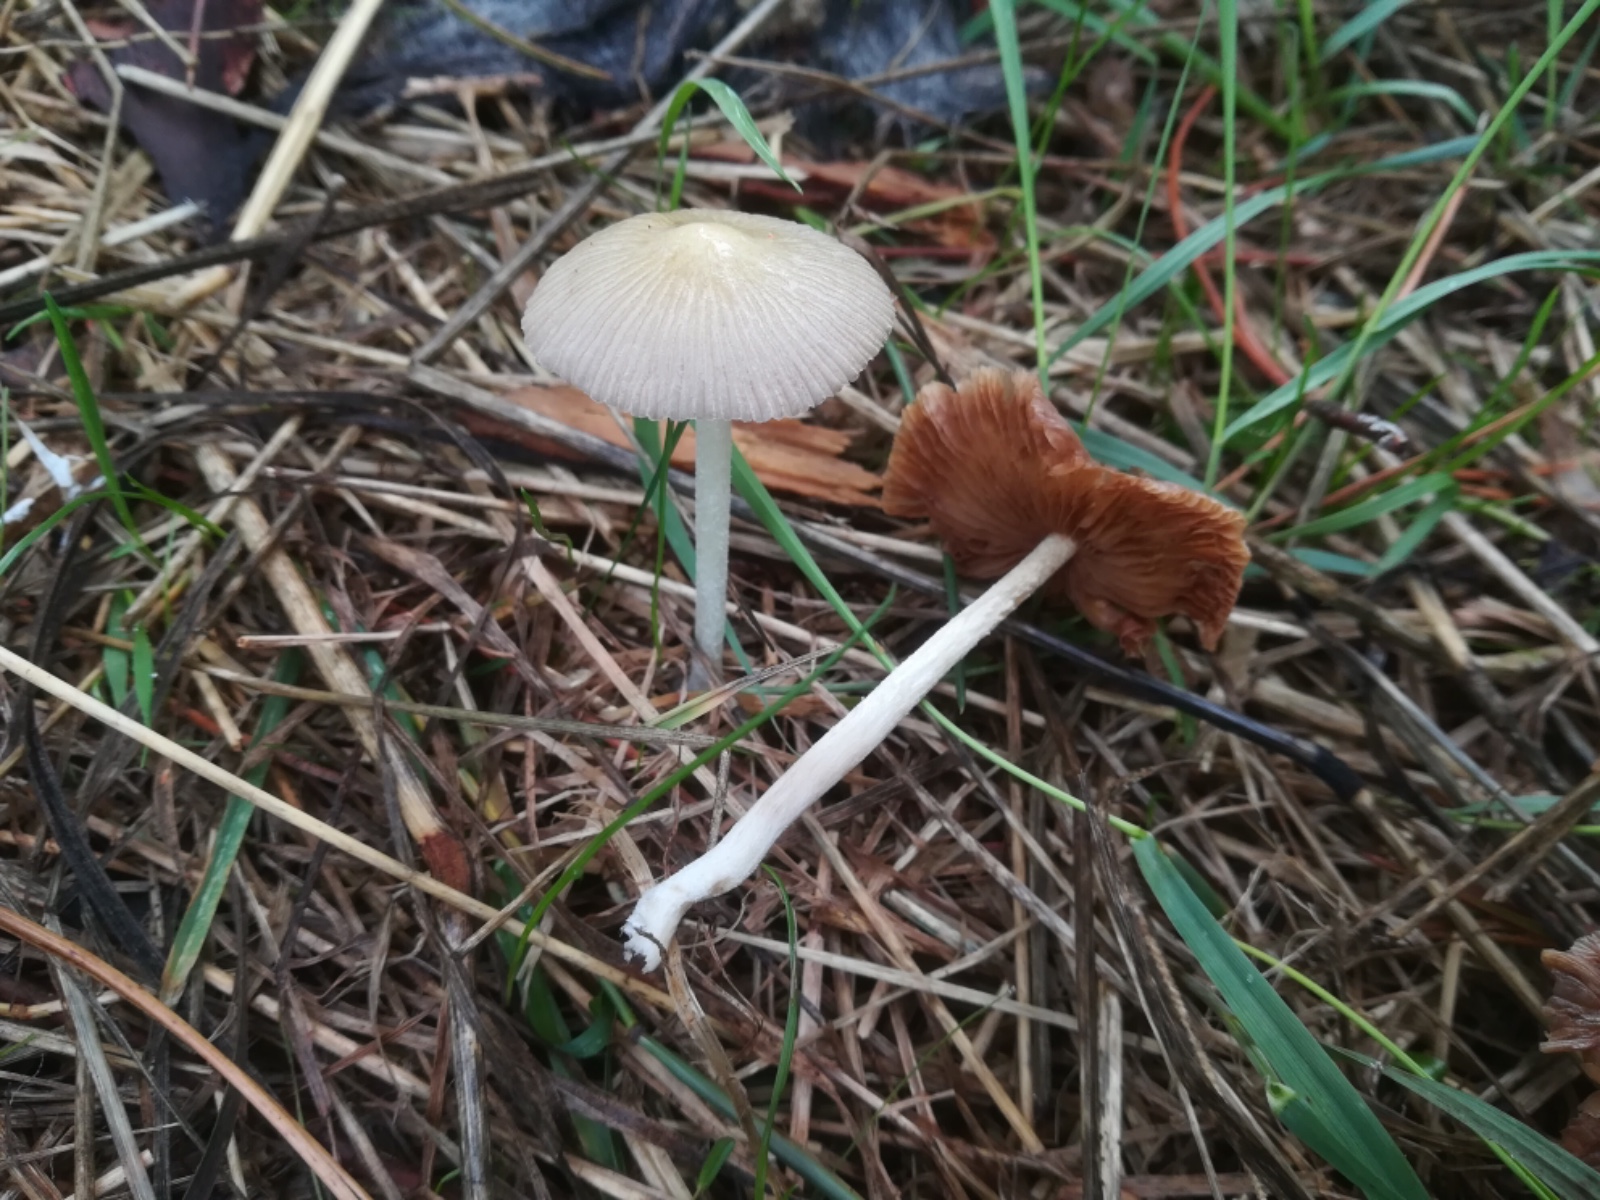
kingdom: Fungi
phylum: Basidiomycota
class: Agaricomycetes
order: Agaricales
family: Bolbitiaceae
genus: Bolbitius
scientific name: Bolbitius titubans
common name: almindelig gulhat
